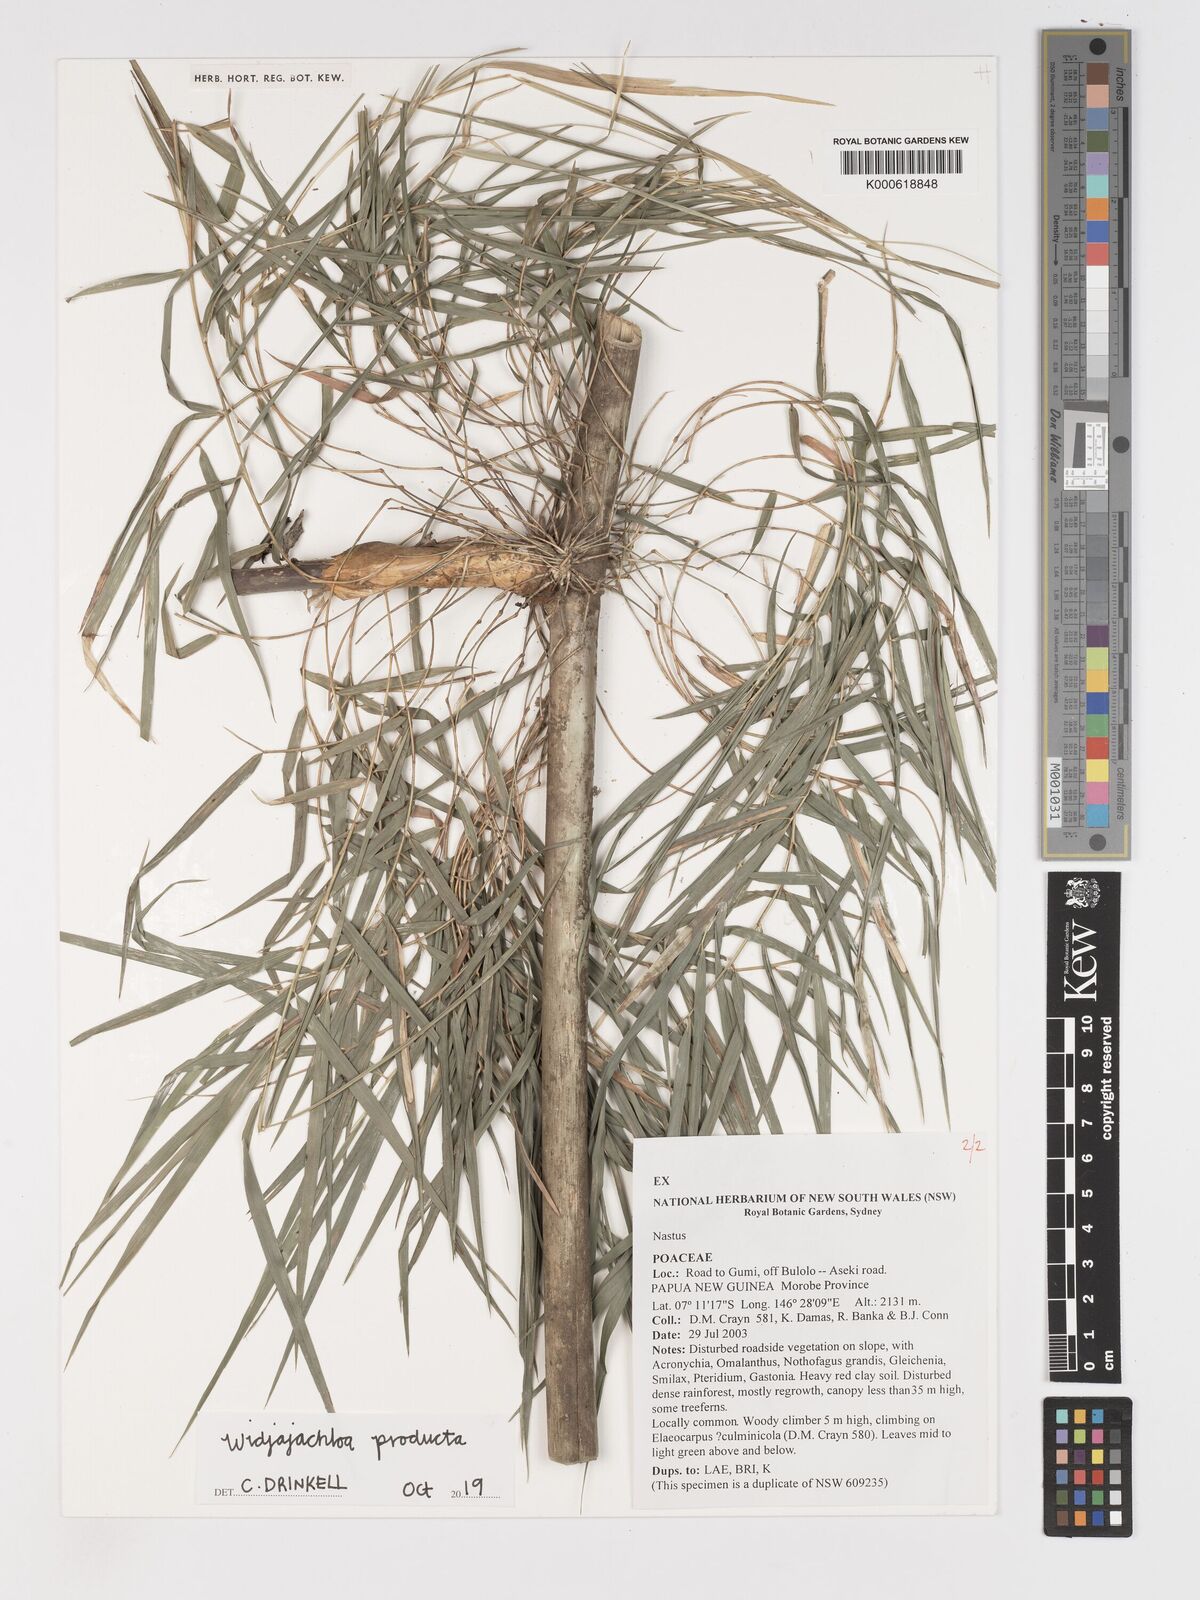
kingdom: Plantae
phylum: Tracheophyta
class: Liliopsida
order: Poales
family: Poaceae
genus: Widjajachloa
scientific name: Widjajachloa producta
